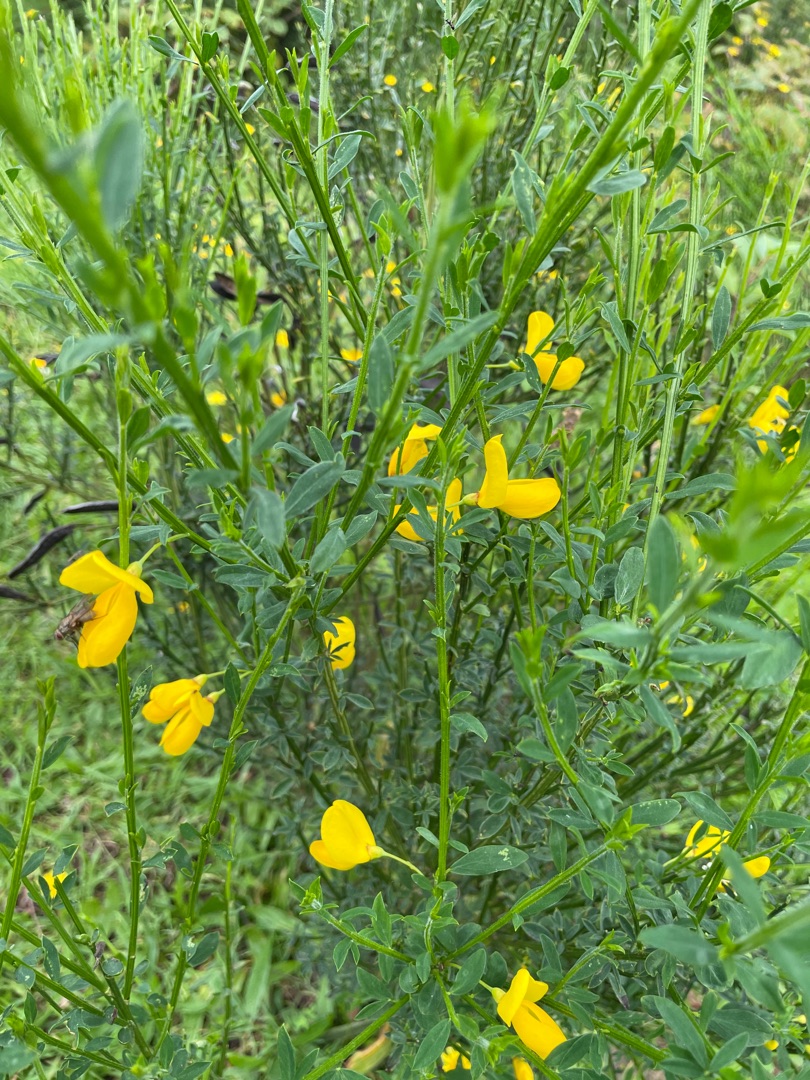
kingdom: Plantae
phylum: Tracheophyta
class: Magnoliopsida
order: Fabales
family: Fabaceae
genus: Cytisus
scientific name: Cytisus scoparius
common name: Almindelig gyvel
